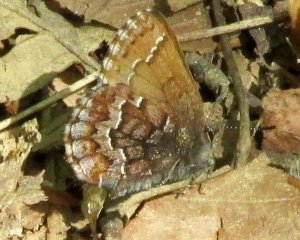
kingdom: Animalia
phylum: Arthropoda
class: Insecta
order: Lepidoptera
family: Lycaenidae
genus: Incisalia
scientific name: Incisalia niphon
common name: Eastern Pine Elfin
